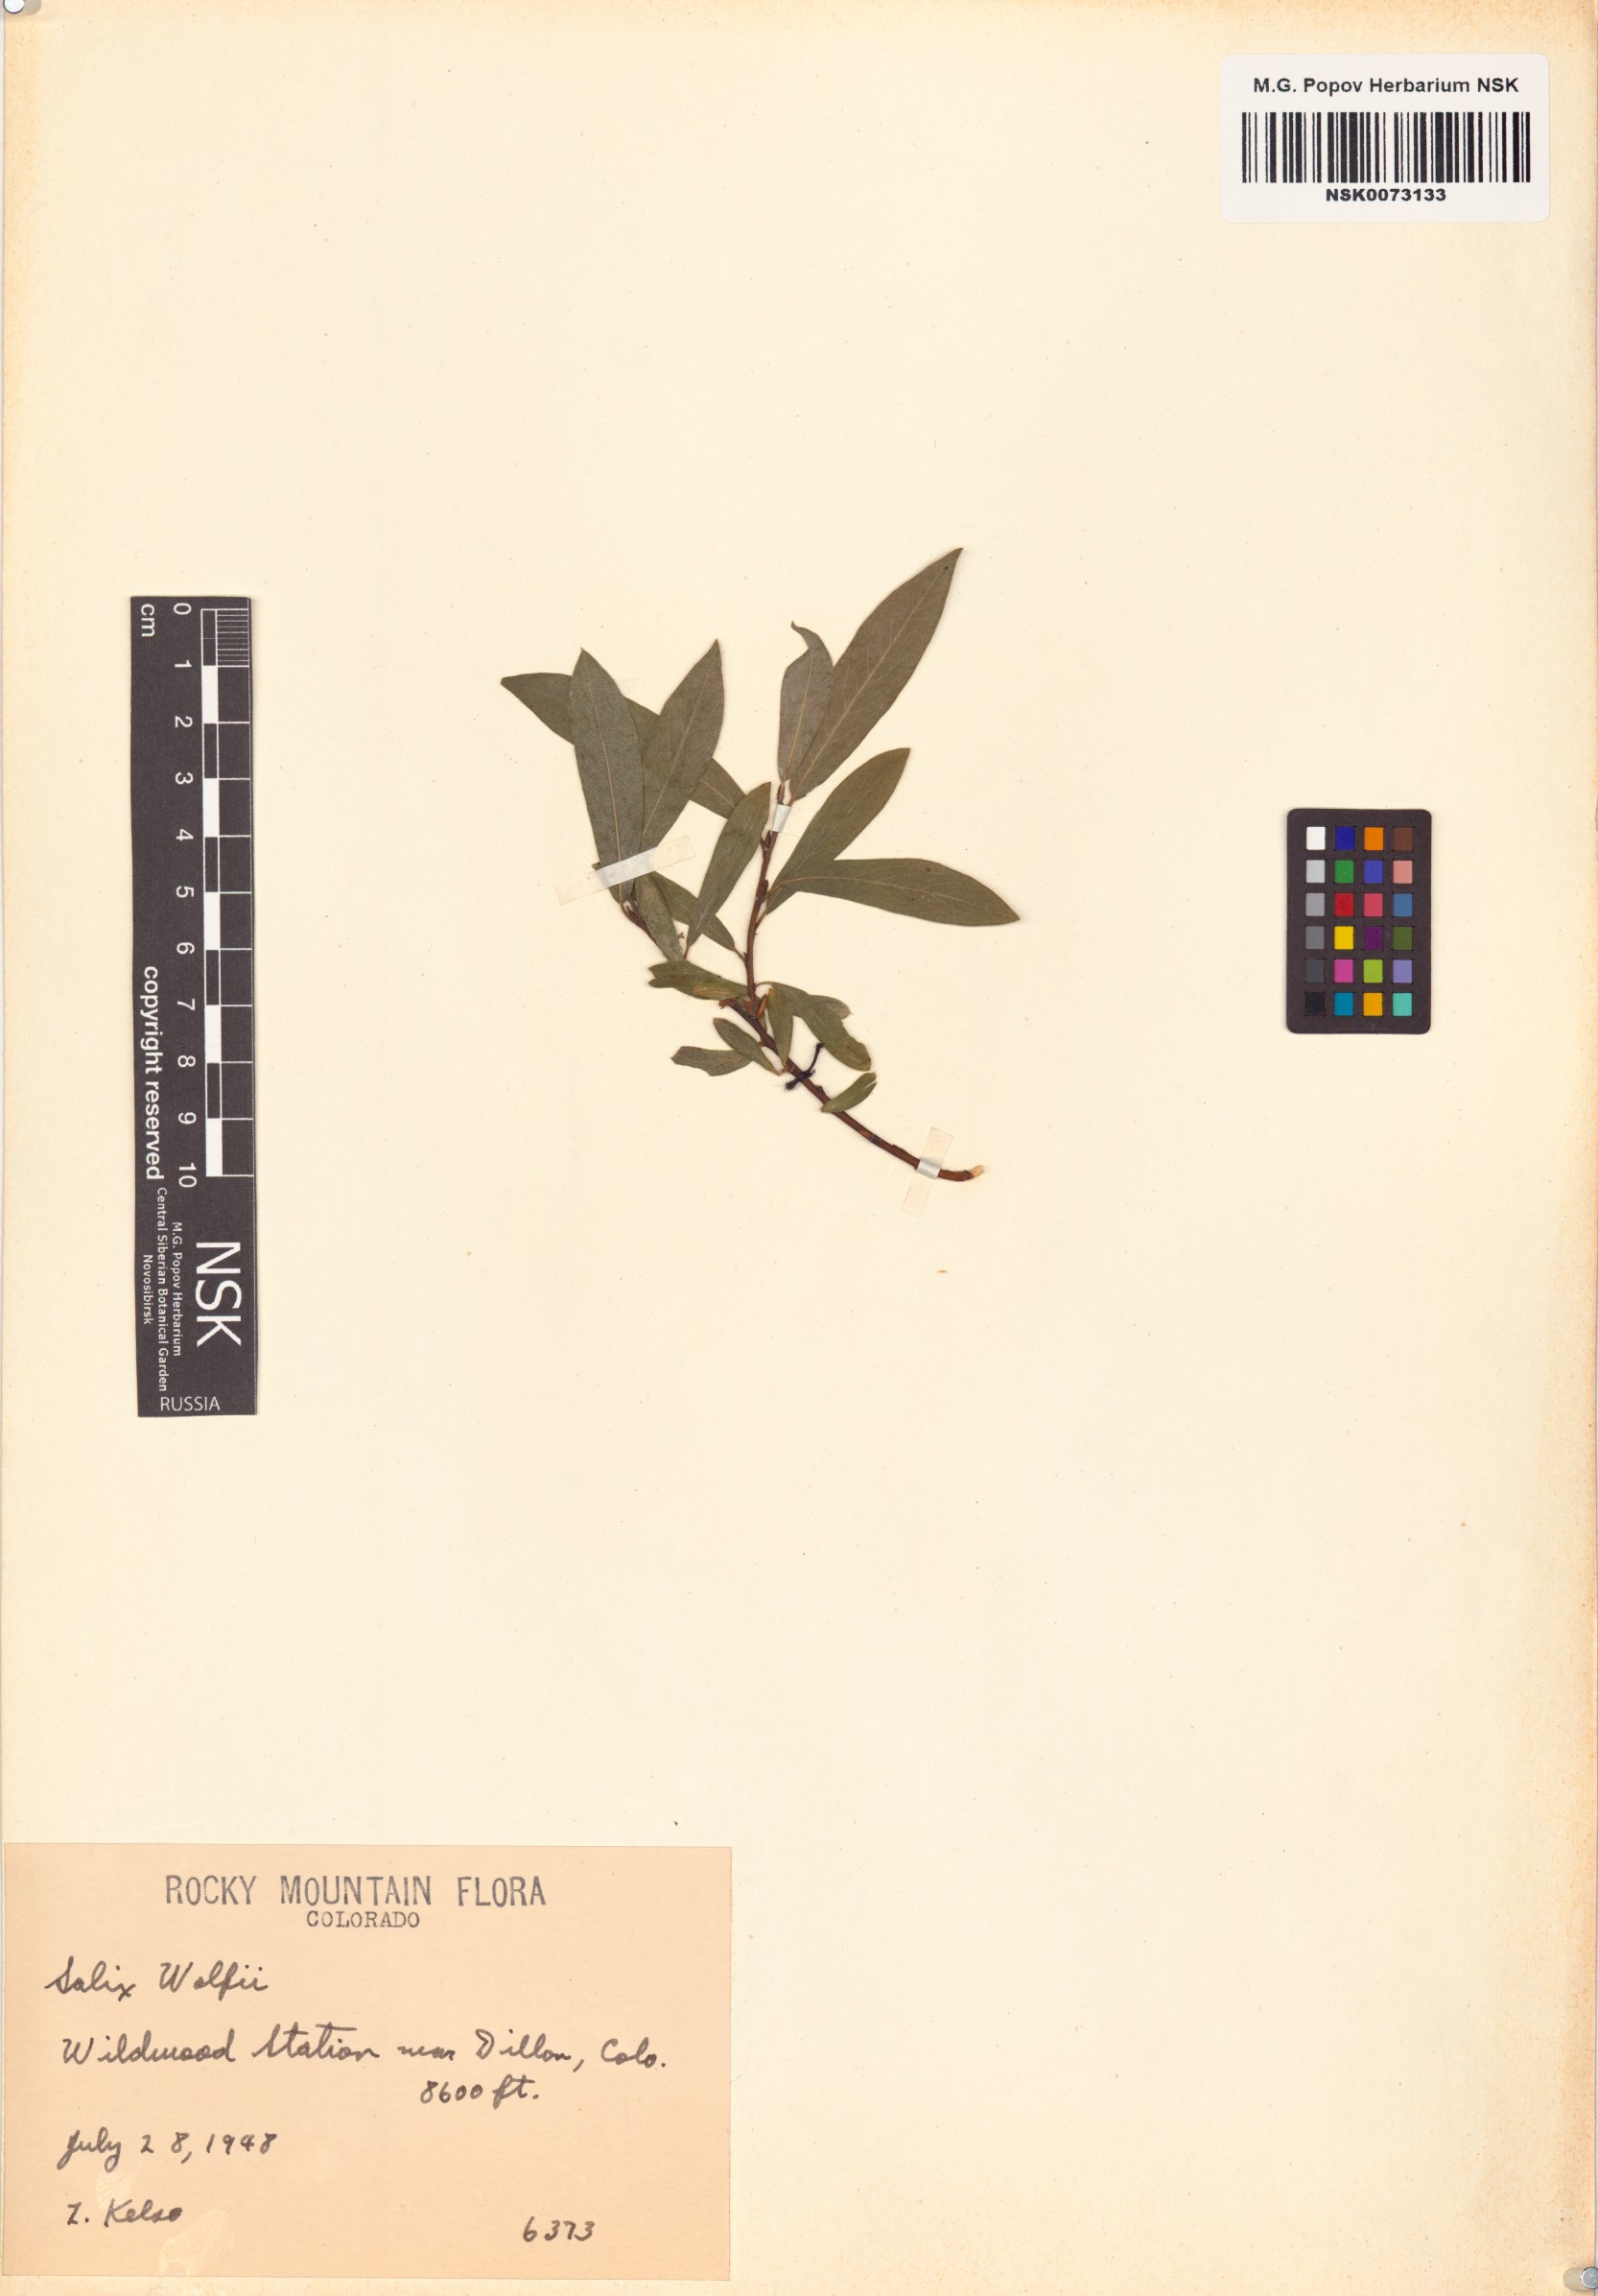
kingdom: Plantae
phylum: Tracheophyta
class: Magnoliopsida
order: Malpighiales
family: Salicaceae
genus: Salix
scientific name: Salix wolfii
